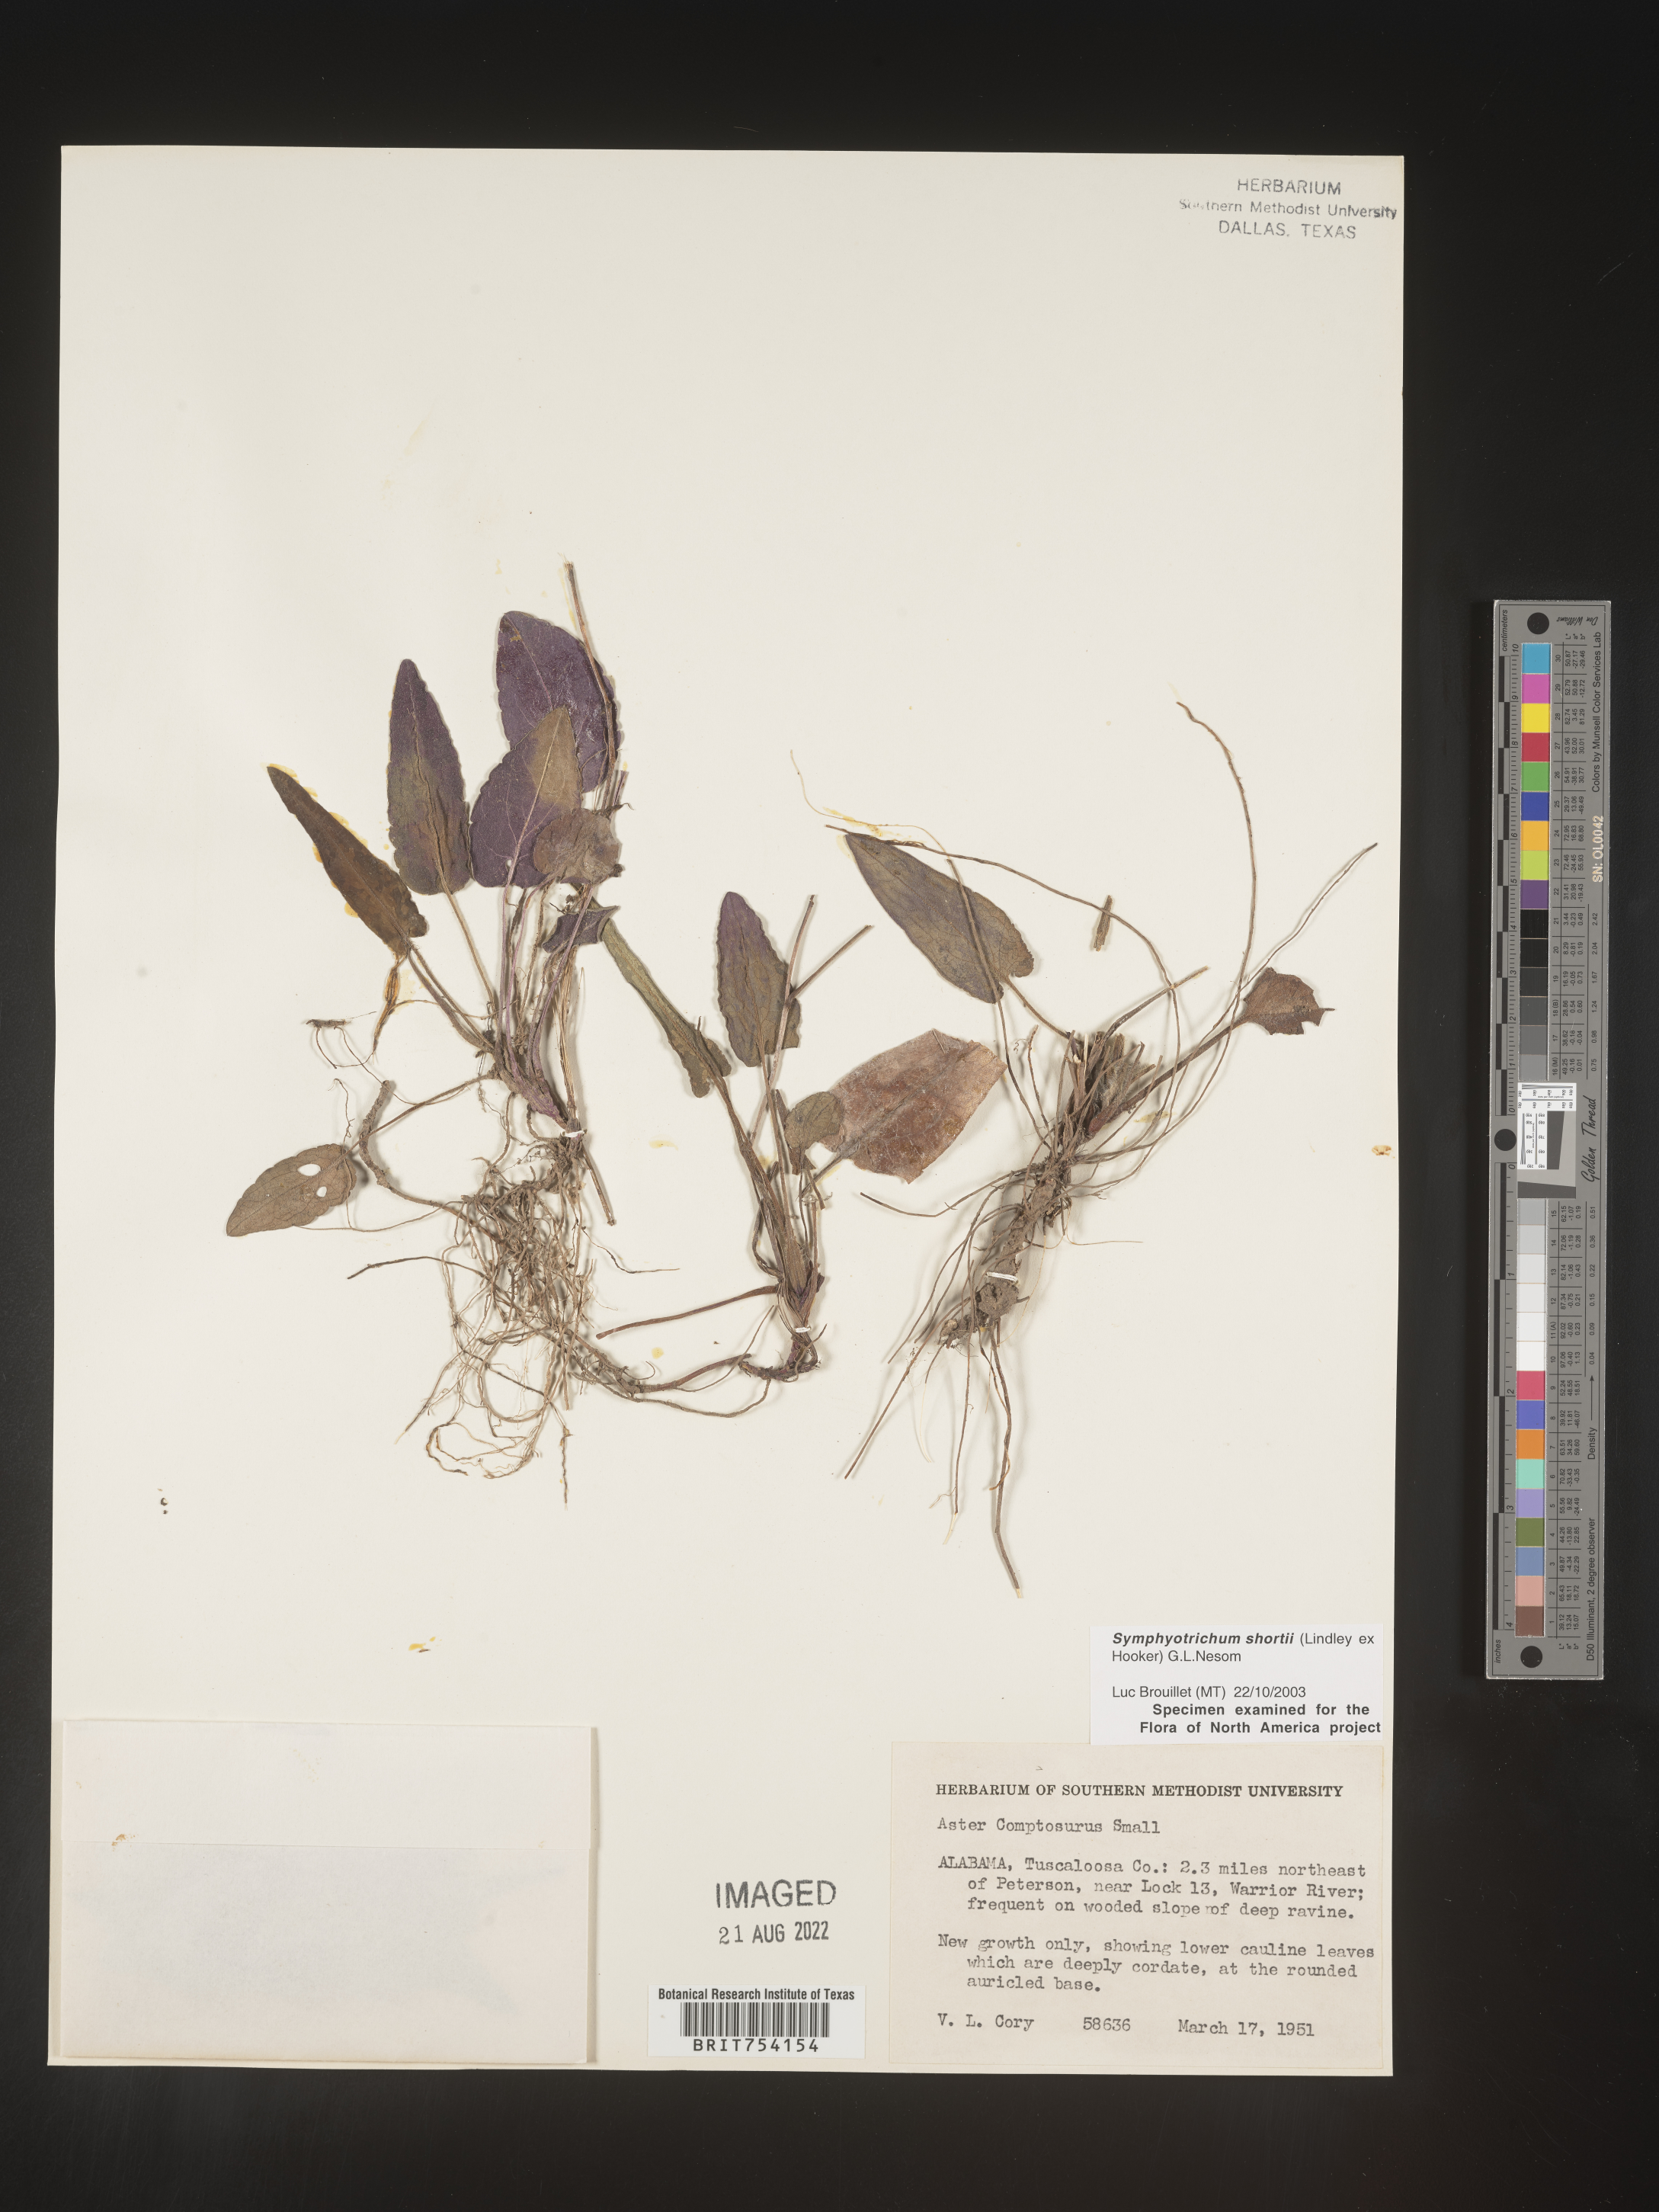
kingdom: Plantae
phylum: Tracheophyta
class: Magnoliopsida
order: Asterales
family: Asteraceae
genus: Symphyotrichum
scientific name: Symphyotrichum shortii
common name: Short's aster
